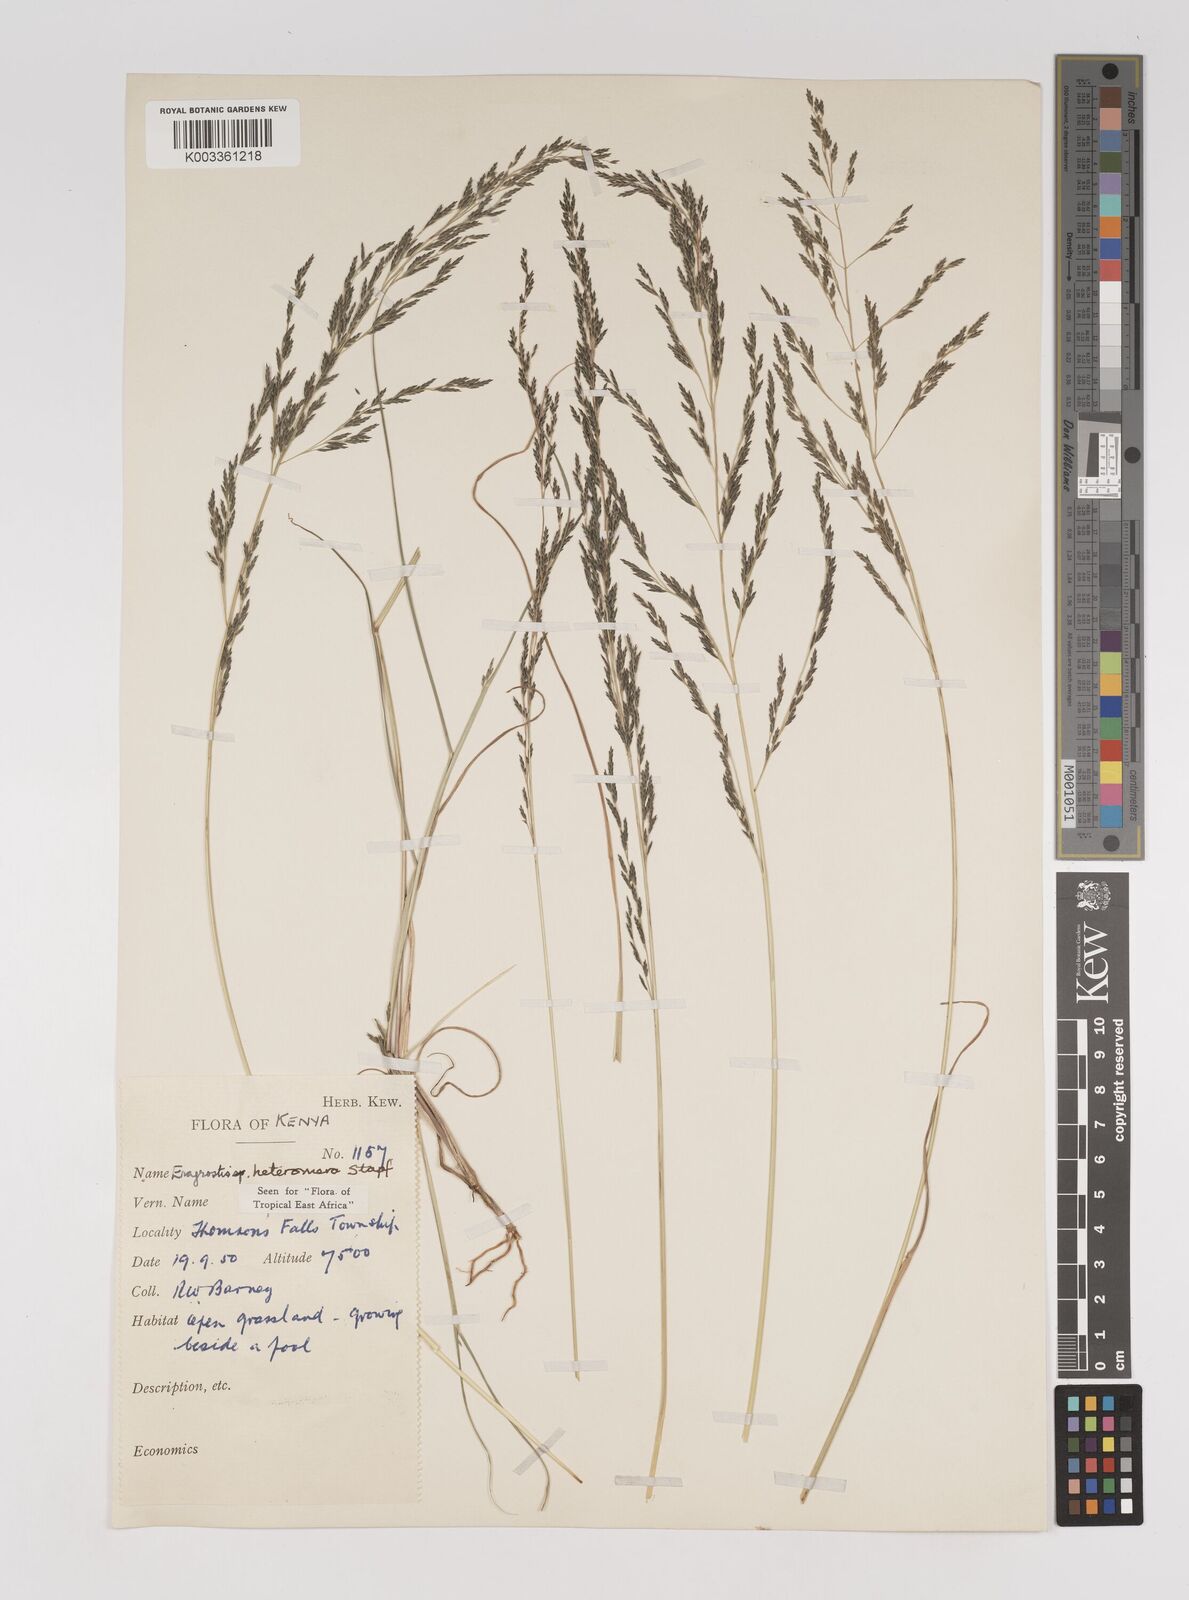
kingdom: Plantae
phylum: Tracheophyta
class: Liliopsida
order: Poales
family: Poaceae
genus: Eragrostis
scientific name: Eragrostis heteromera
